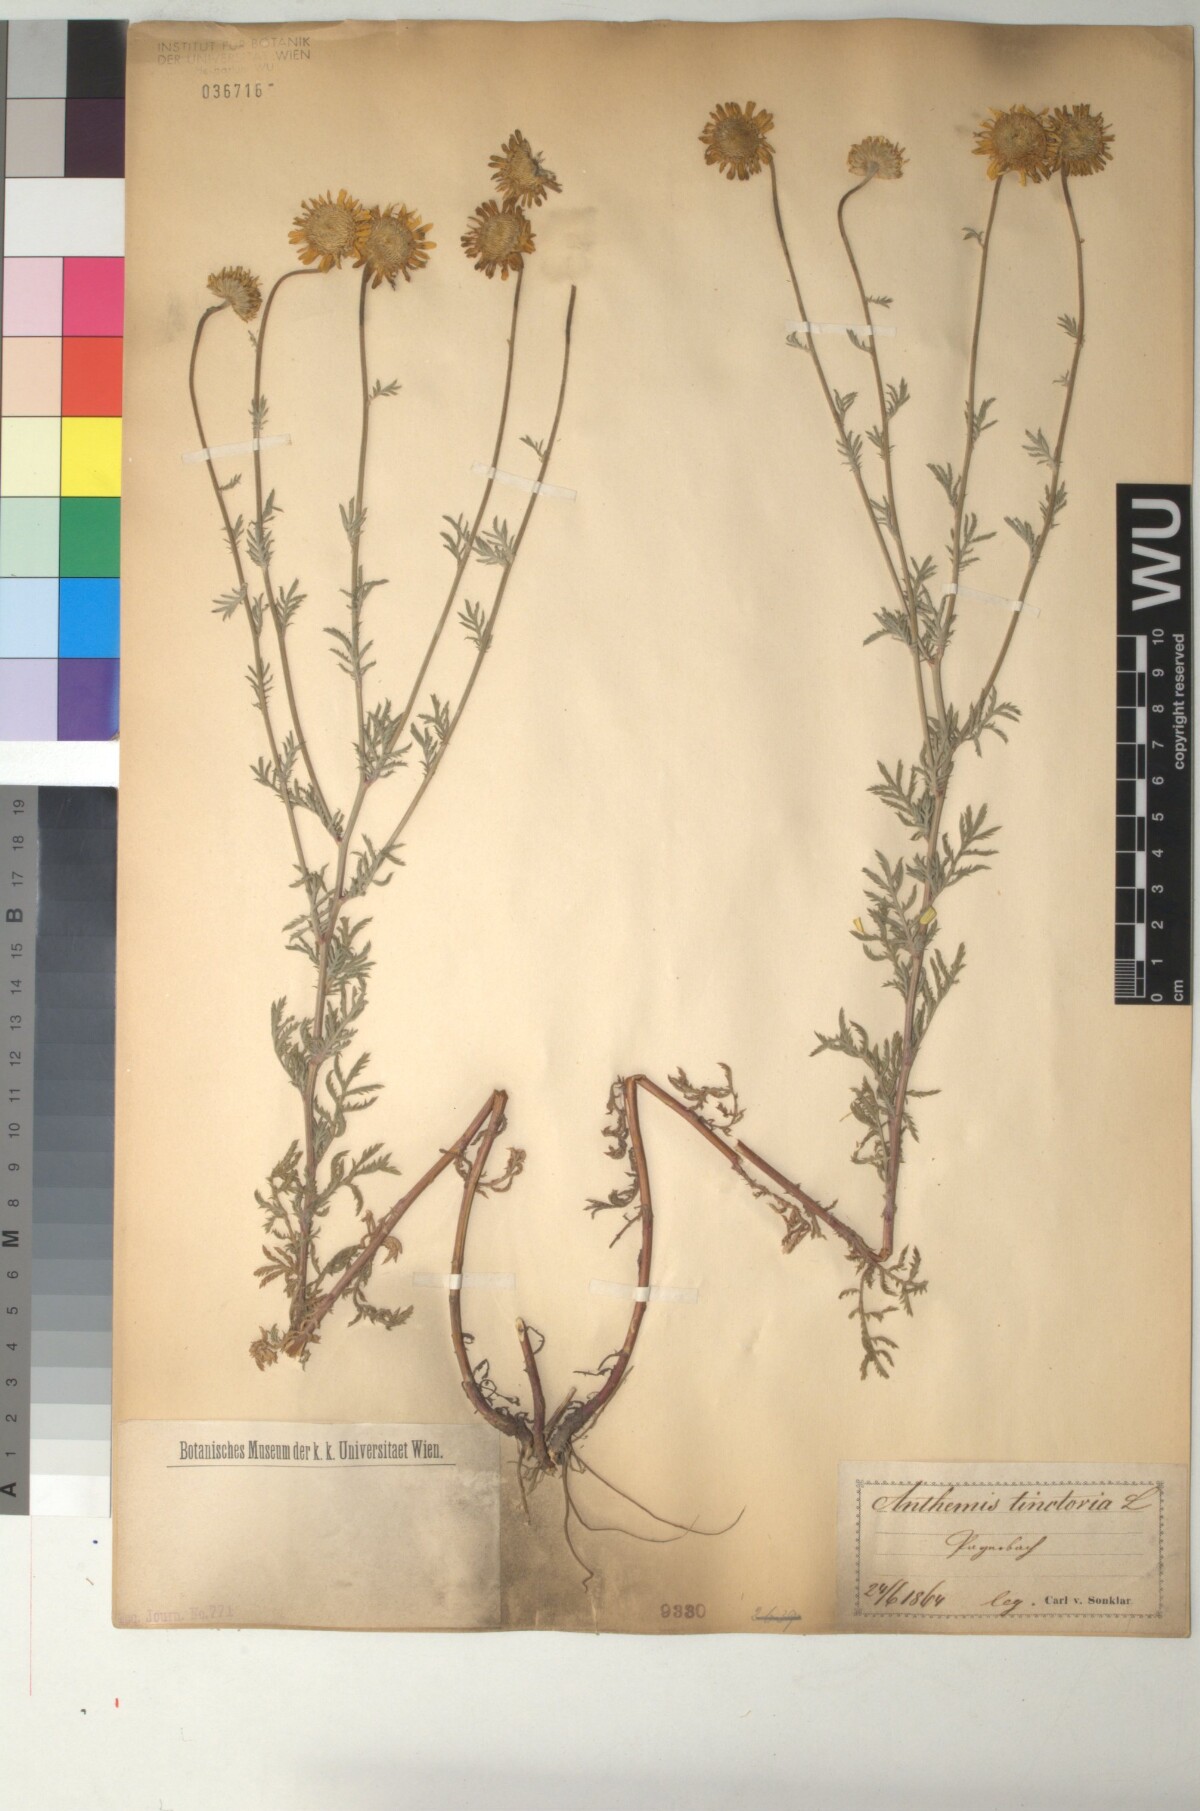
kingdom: Plantae
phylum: Tracheophyta
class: Magnoliopsida
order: Asterales
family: Asteraceae
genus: Cota
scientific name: Cota tinctoria
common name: Golden chamomile
